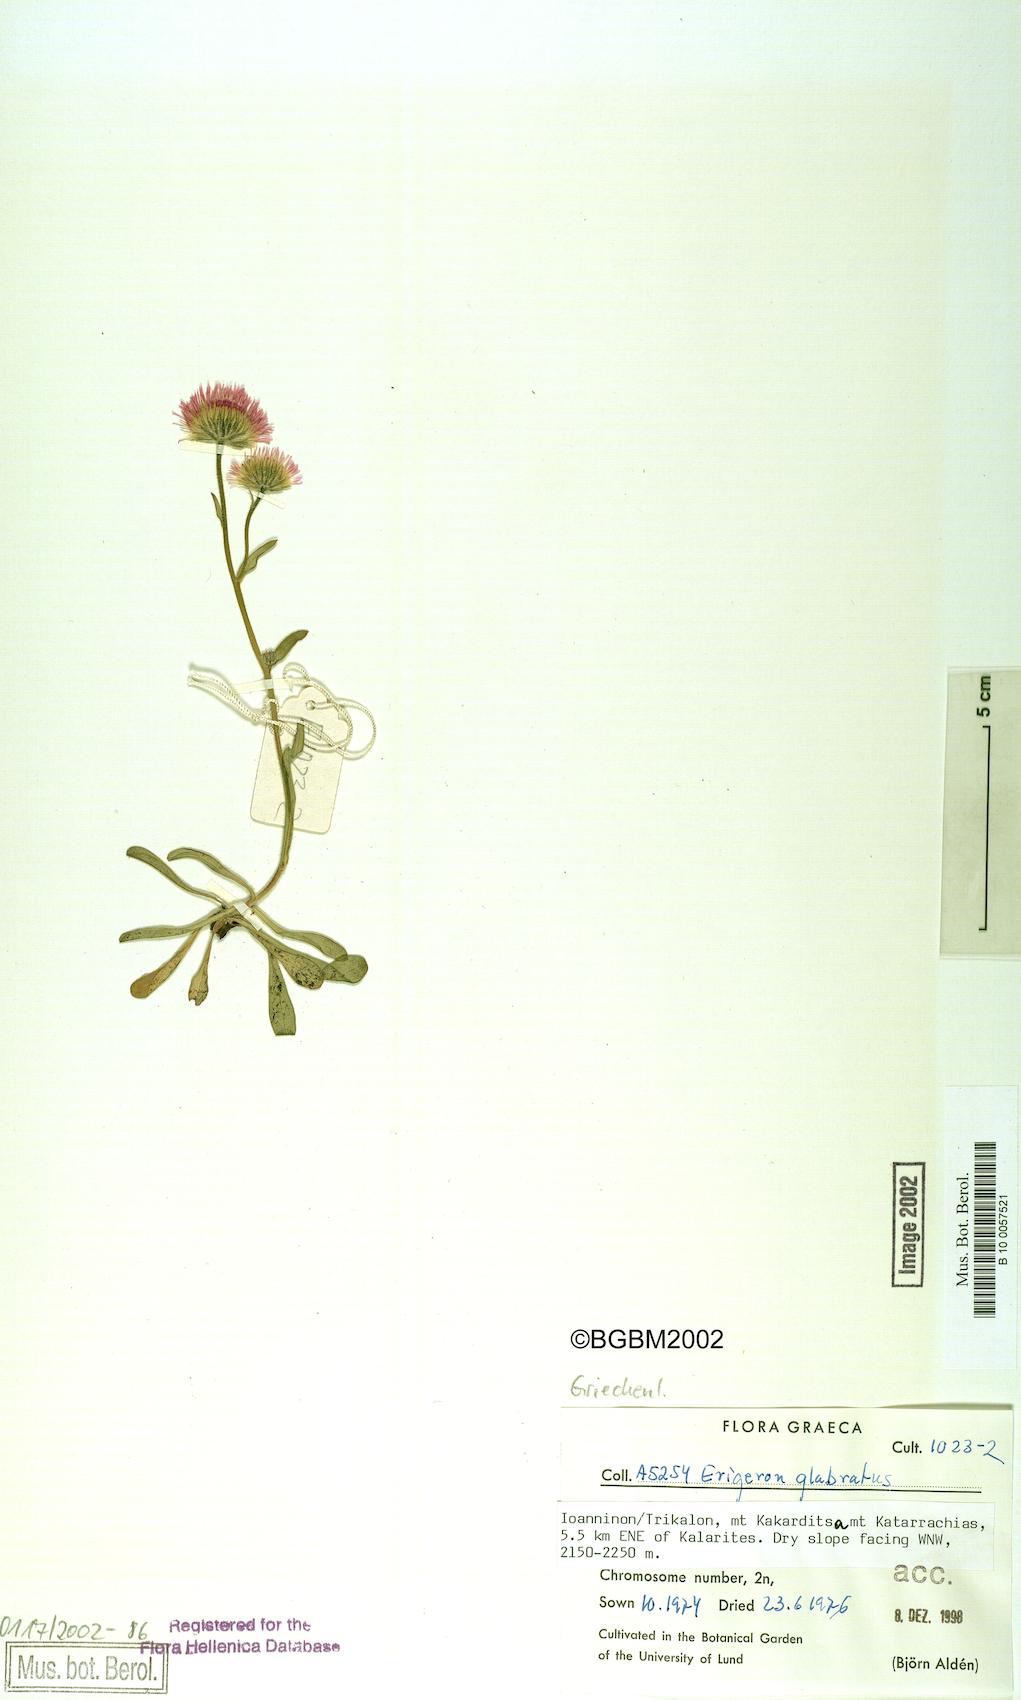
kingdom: Plantae
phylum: Tracheophyta
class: Magnoliopsida
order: Asterales
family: Asteraceae
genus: Erigeron
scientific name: Erigeron glabratus
